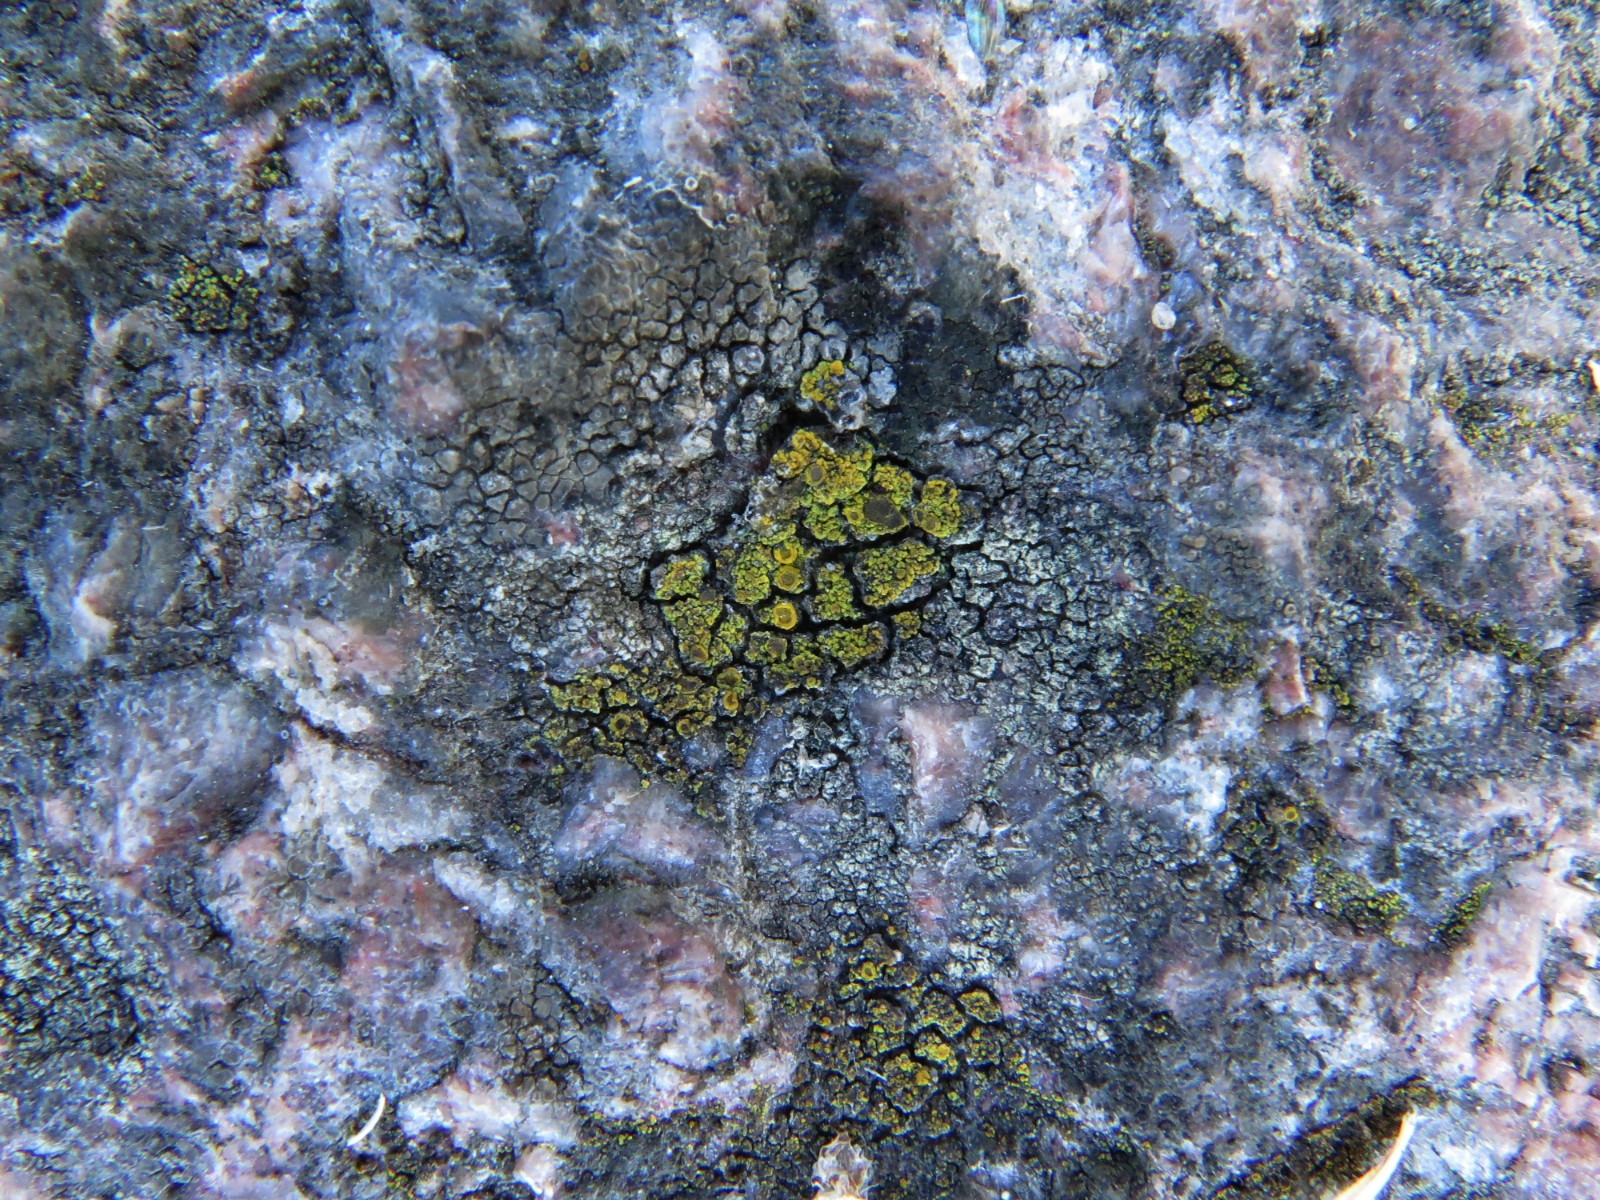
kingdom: Fungi
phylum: Ascomycota
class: Candelariomycetes
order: Candelariales
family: Candelariaceae
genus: Candelariella
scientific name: Candelariella vitellina
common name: almindelig æggeblommelav
